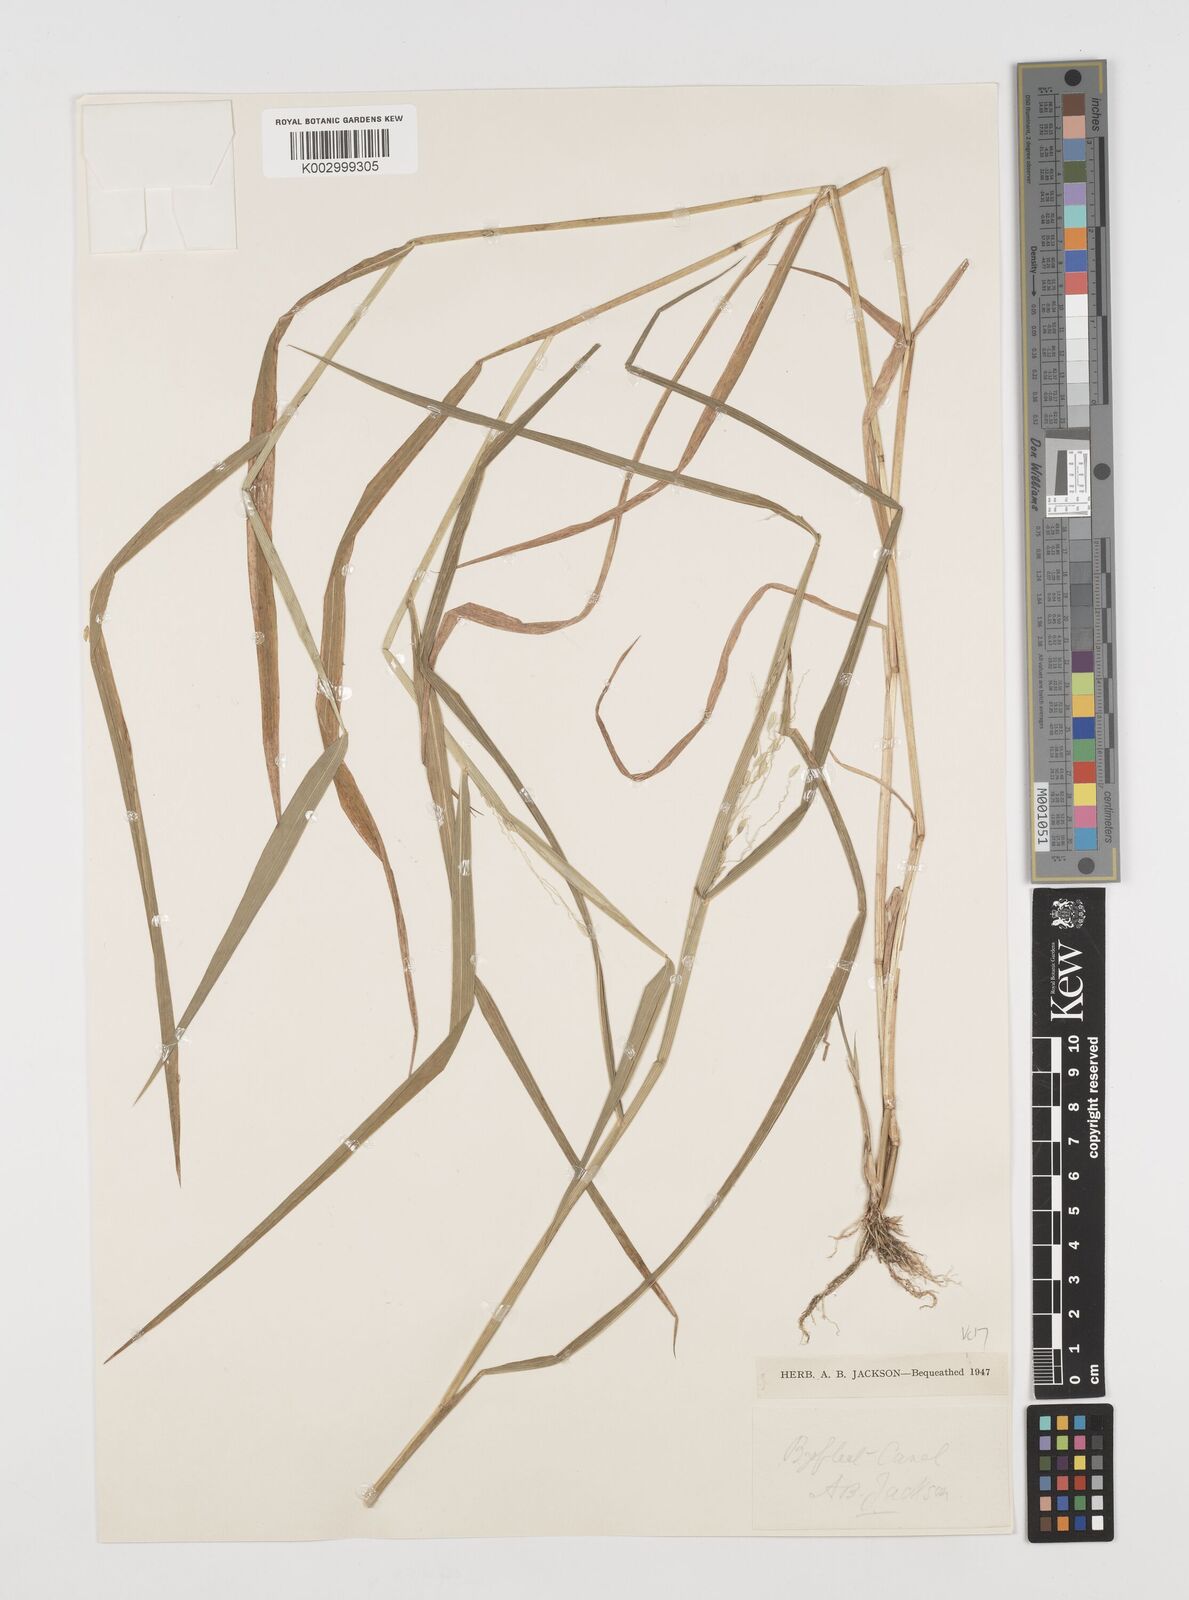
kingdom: Plantae
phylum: Tracheophyta
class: Liliopsida
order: Poales
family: Poaceae
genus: Leersia
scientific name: Leersia oryzoides
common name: Cut-grass
